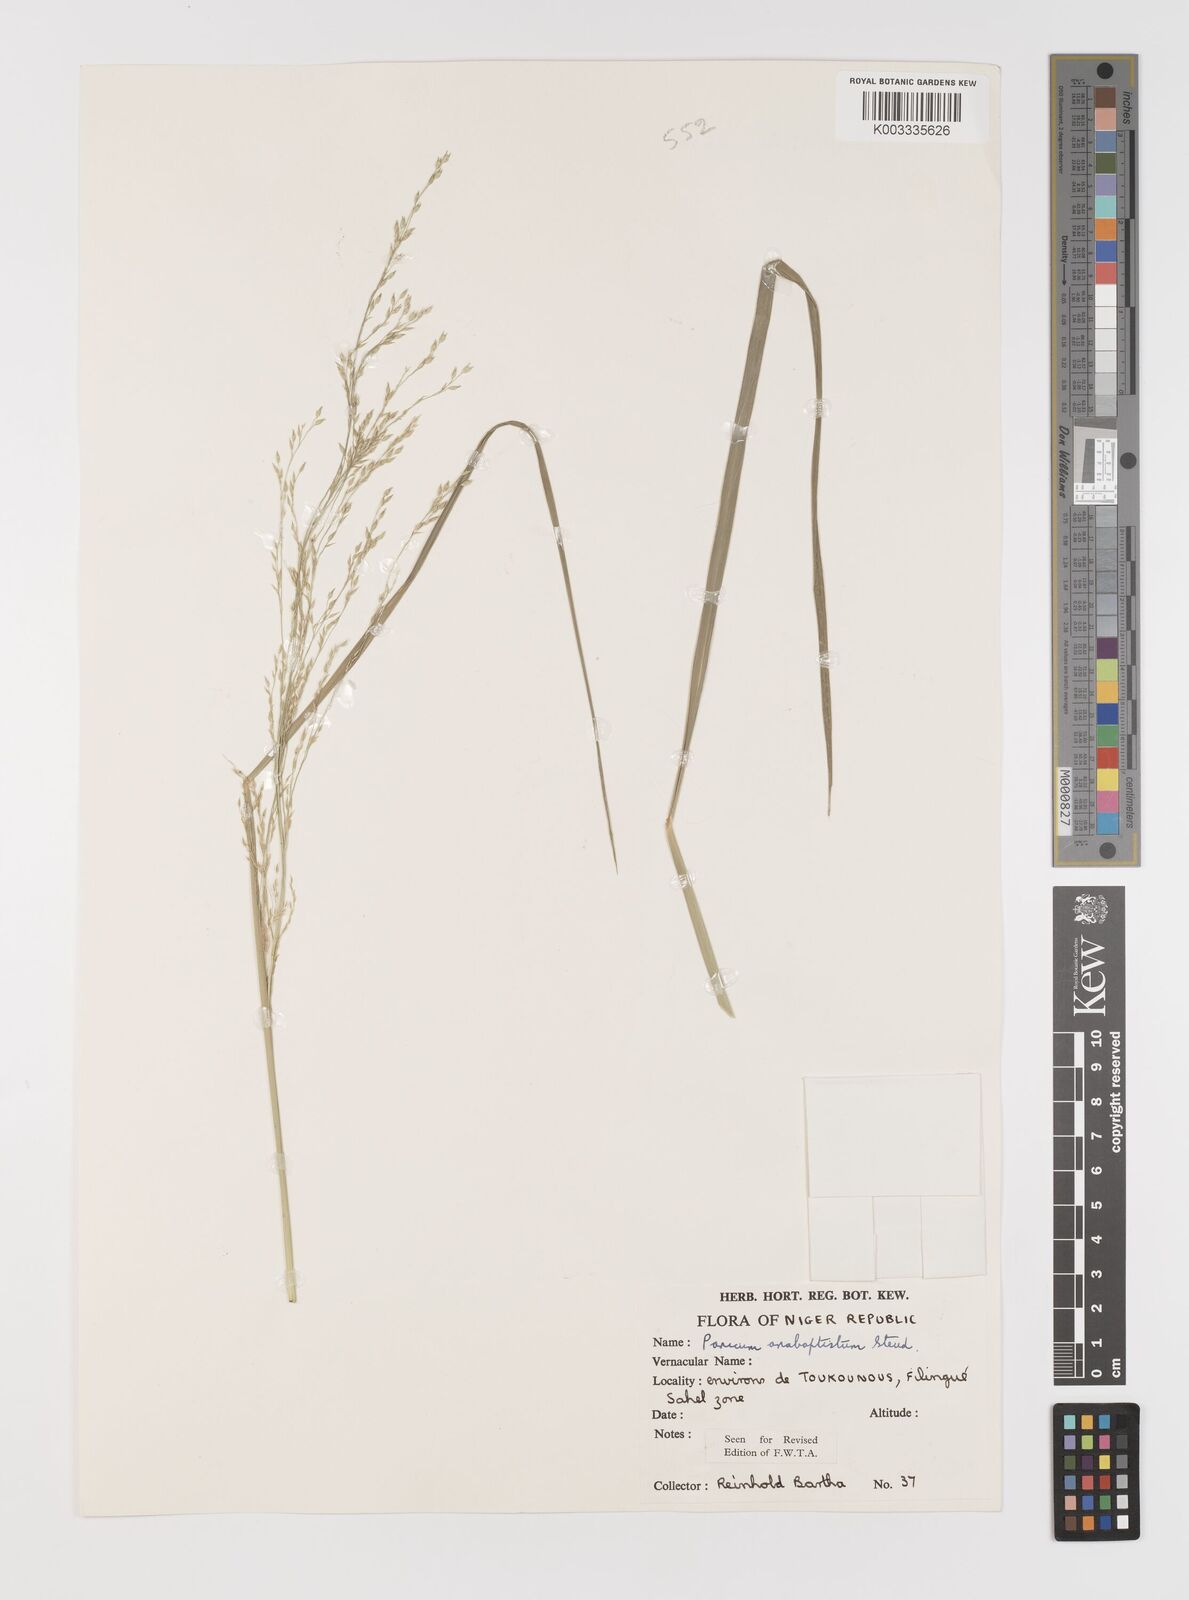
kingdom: Plantae
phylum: Tracheophyta
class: Liliopsida
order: Poales
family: Poaceae
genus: Panicum
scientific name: Panicum anabaptistum
